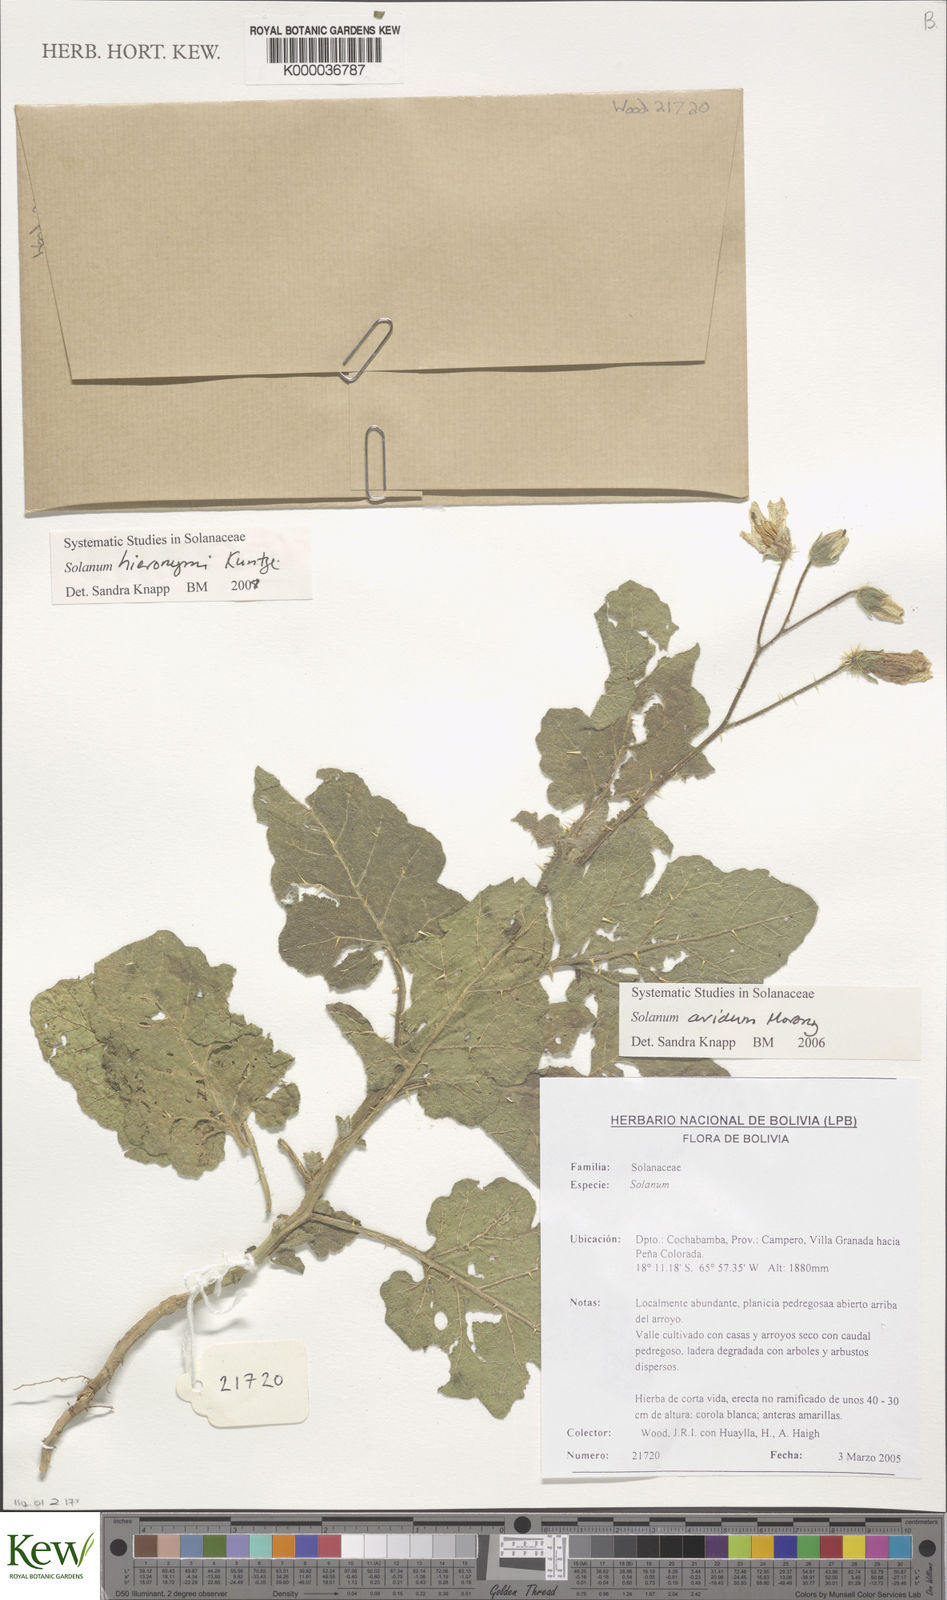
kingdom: Plantae
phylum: Tracheophyta
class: Magnoliopsida
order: Solanales
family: Solanaceae
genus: Solanum
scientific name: Solanum aridum
